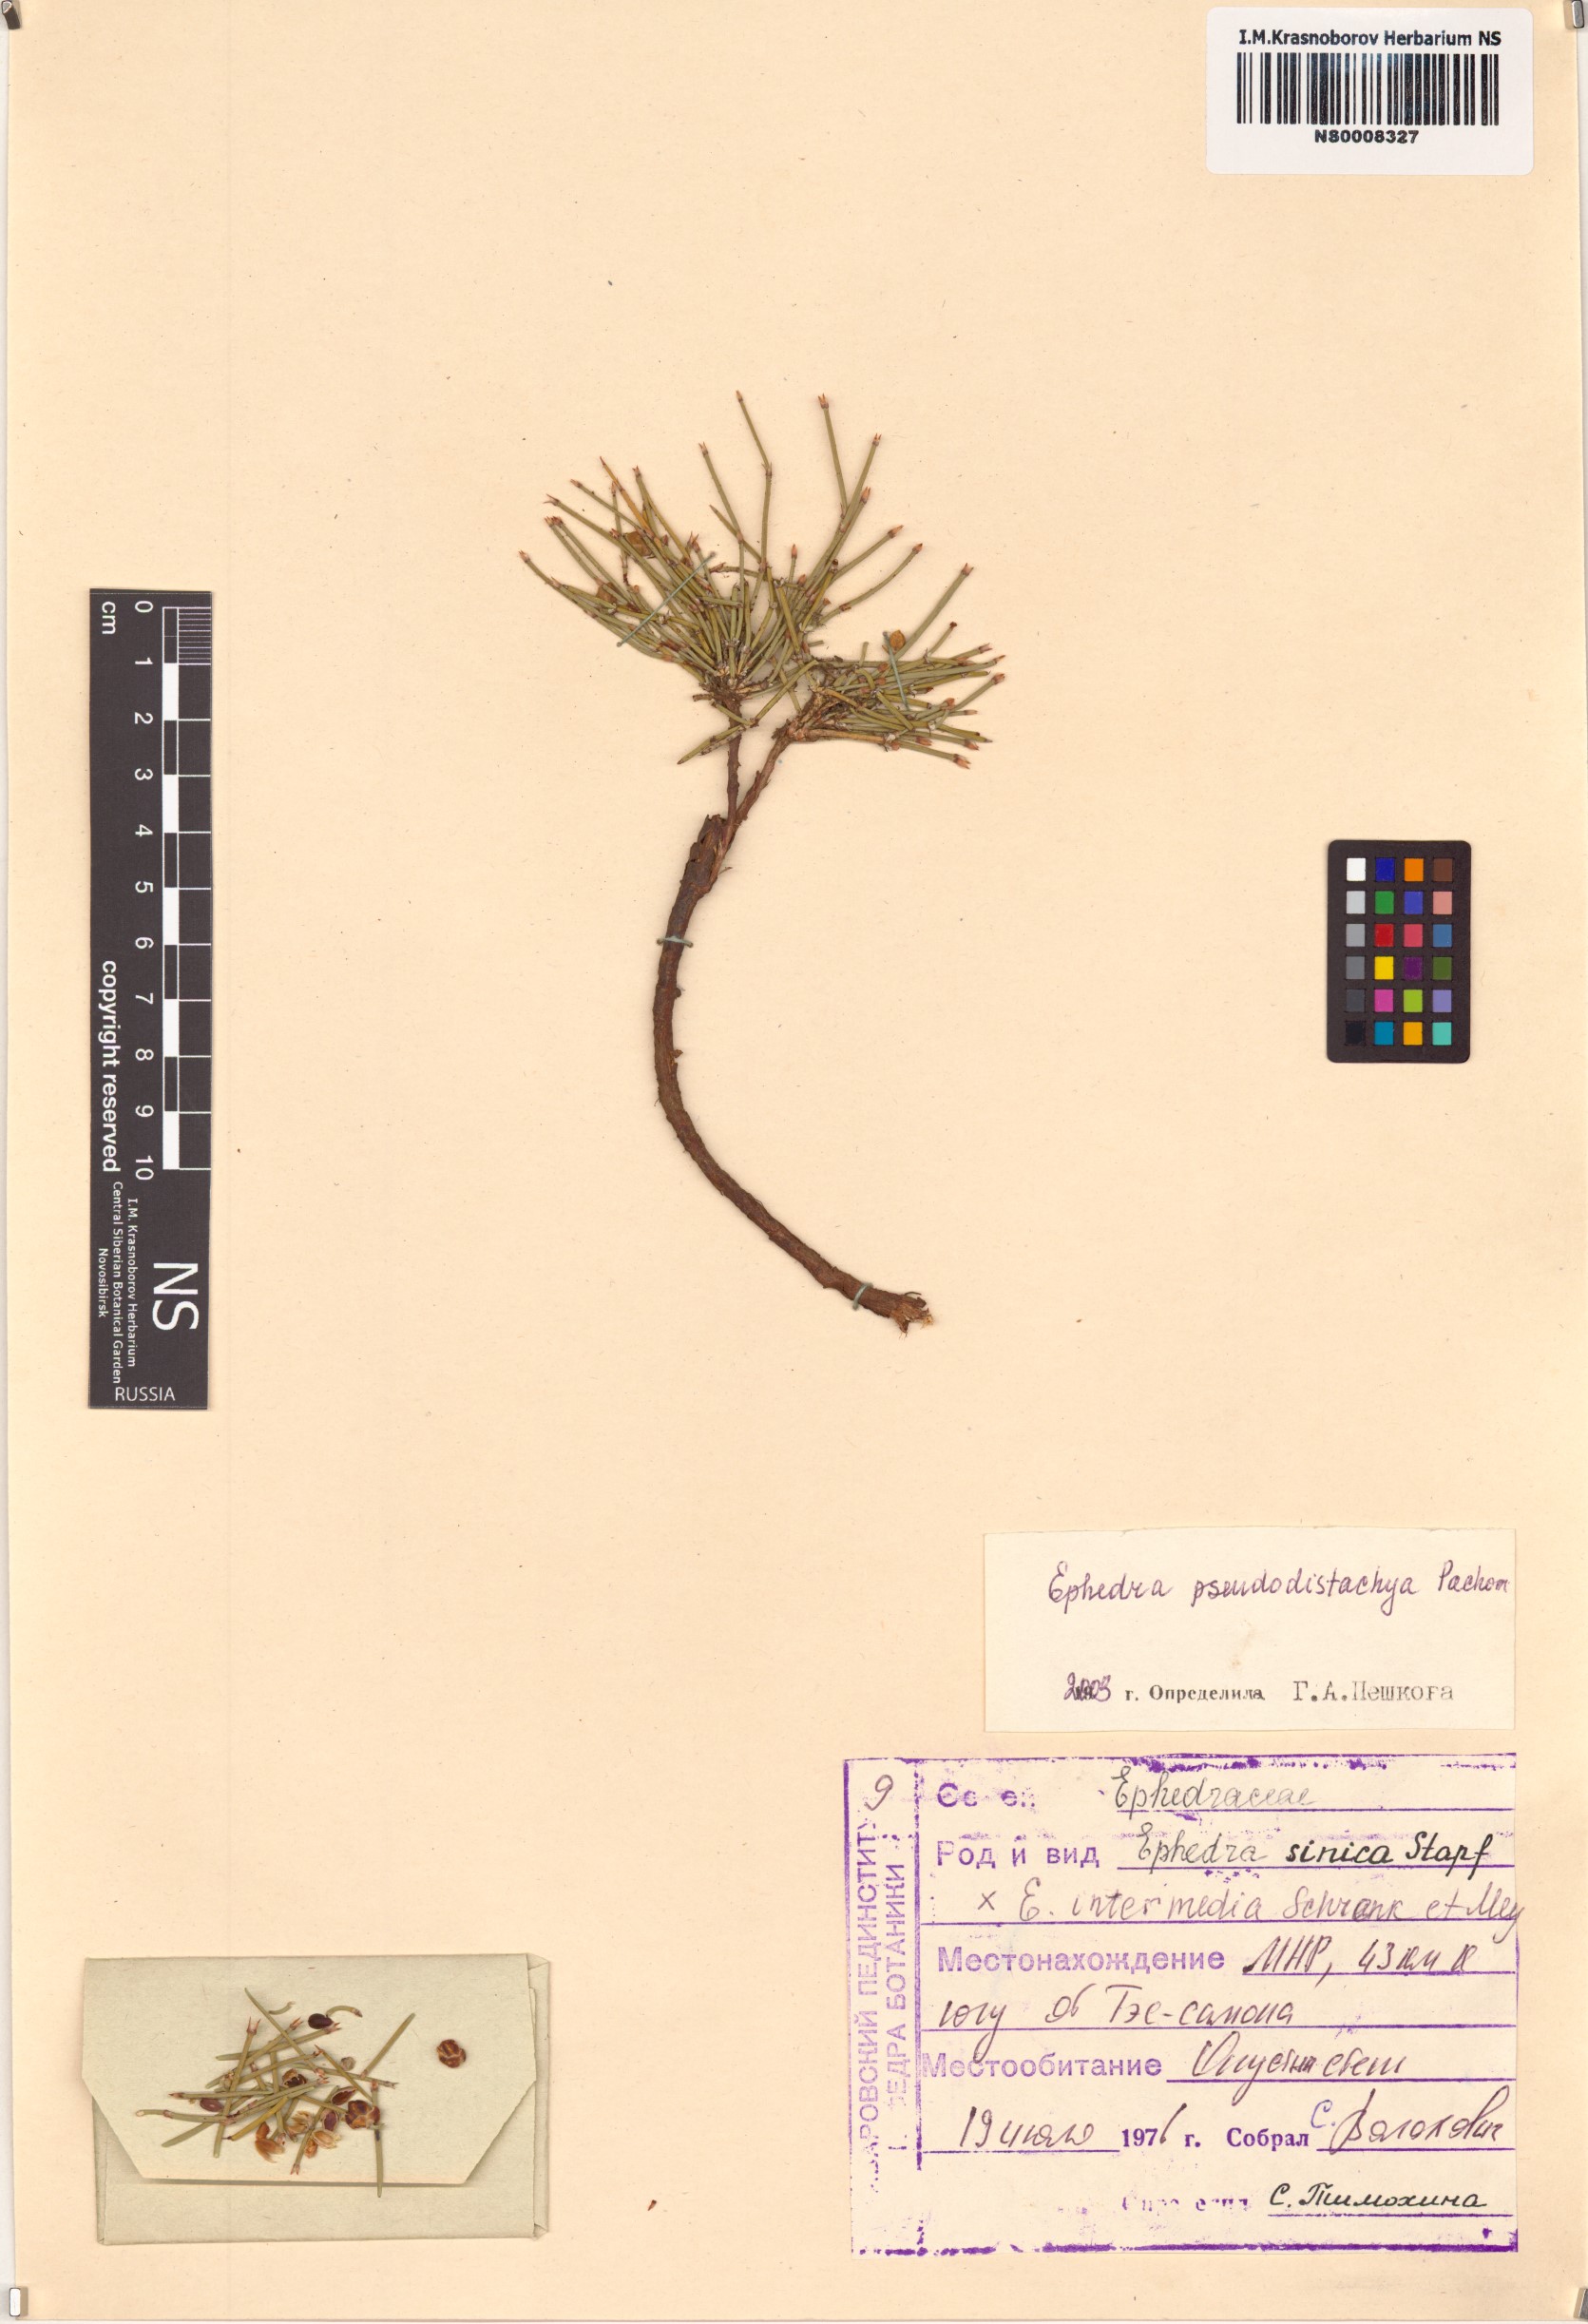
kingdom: Plantae
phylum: Tracheophyta
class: Gnetopsida
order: Ephedrales
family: Ephedraceae
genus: Ephedra
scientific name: Ephedra pseudodistachya
